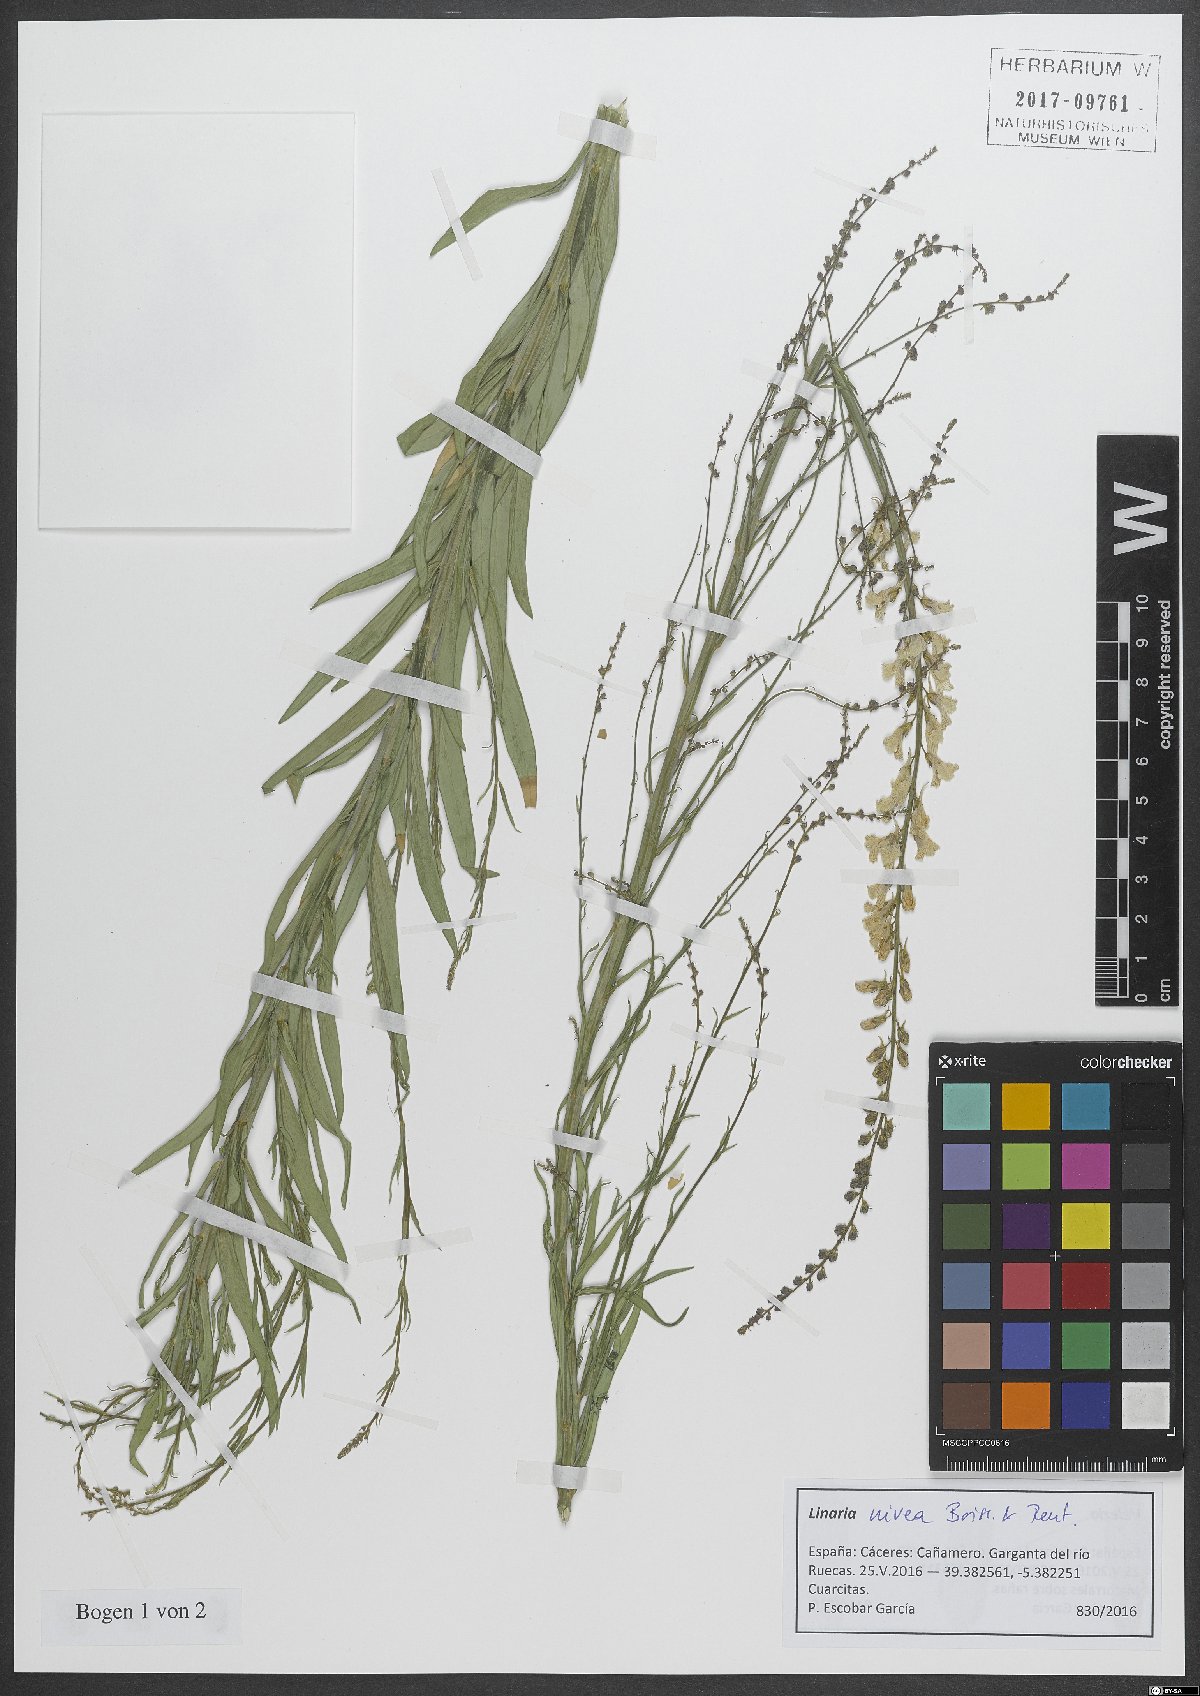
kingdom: Plantae
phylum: Tracheophyta
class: Magnoliopsida
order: Lamiales
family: Plantaginaceae
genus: Linaria
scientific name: Linaria nivea
